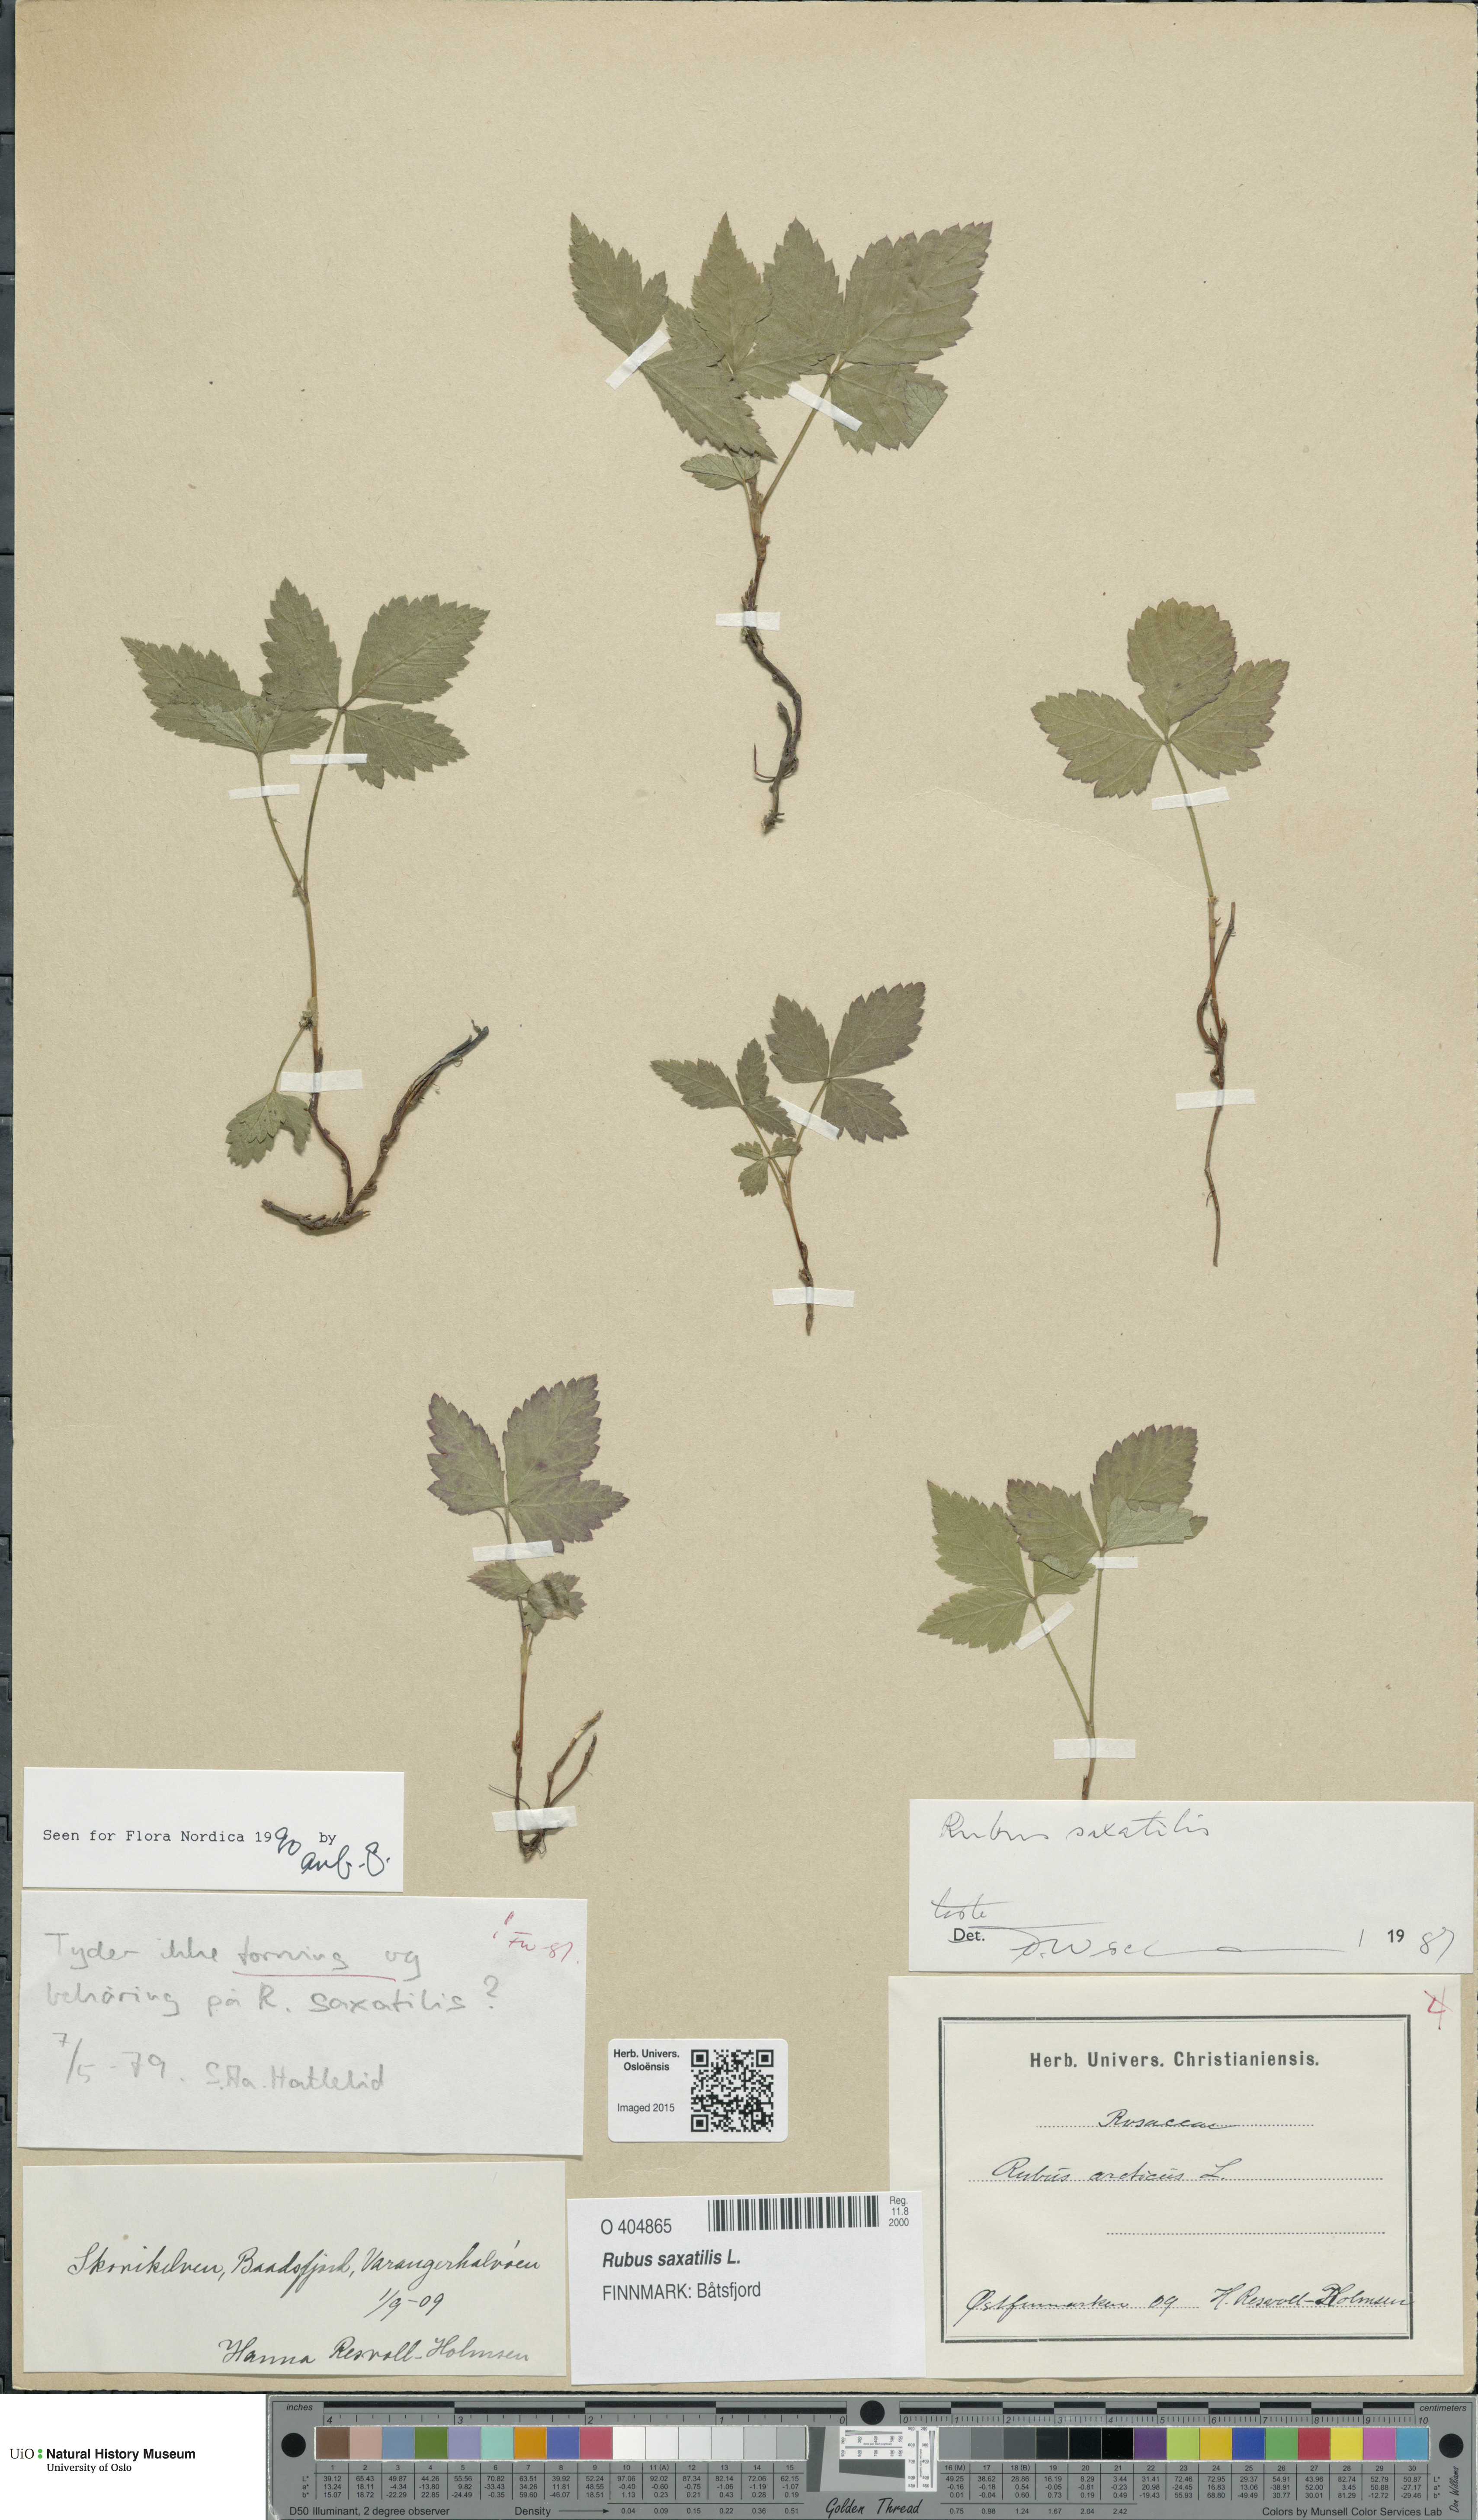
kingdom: Plantae
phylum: Tracheophyta
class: Magnoliopsida
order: Rosales
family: Rosaceae
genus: Rubus
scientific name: Rubus saxatilis
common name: Stone bramble
